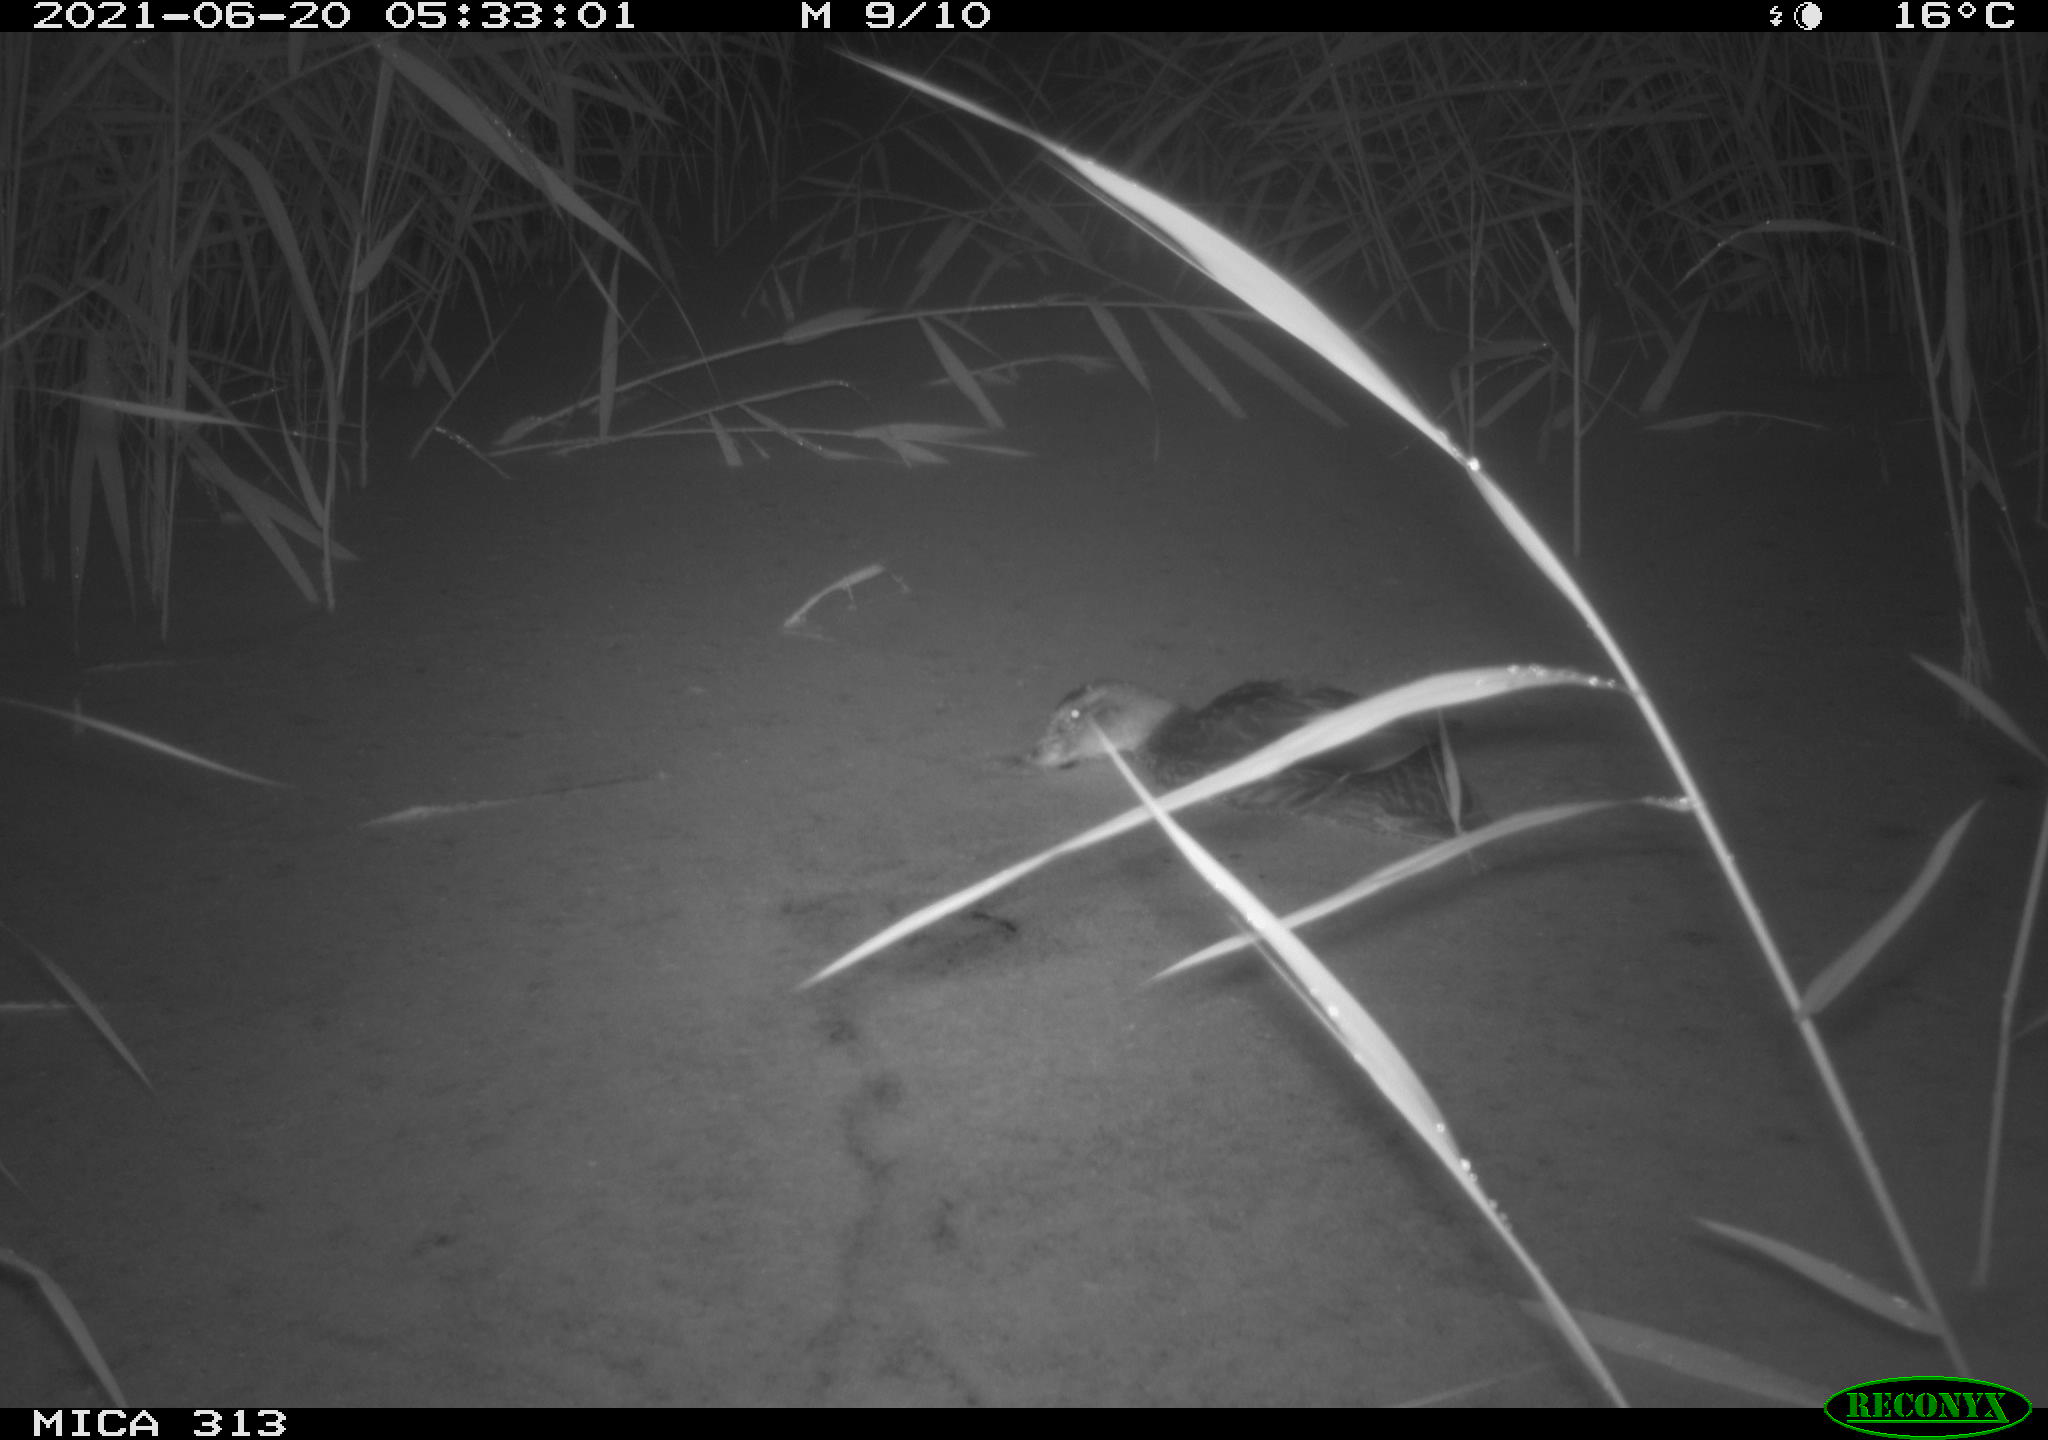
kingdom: Animalia
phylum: Chordata
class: Aves
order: Gruiformes
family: Rallidae
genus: Fulica
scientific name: Fulica atra
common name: Eurasian coot
